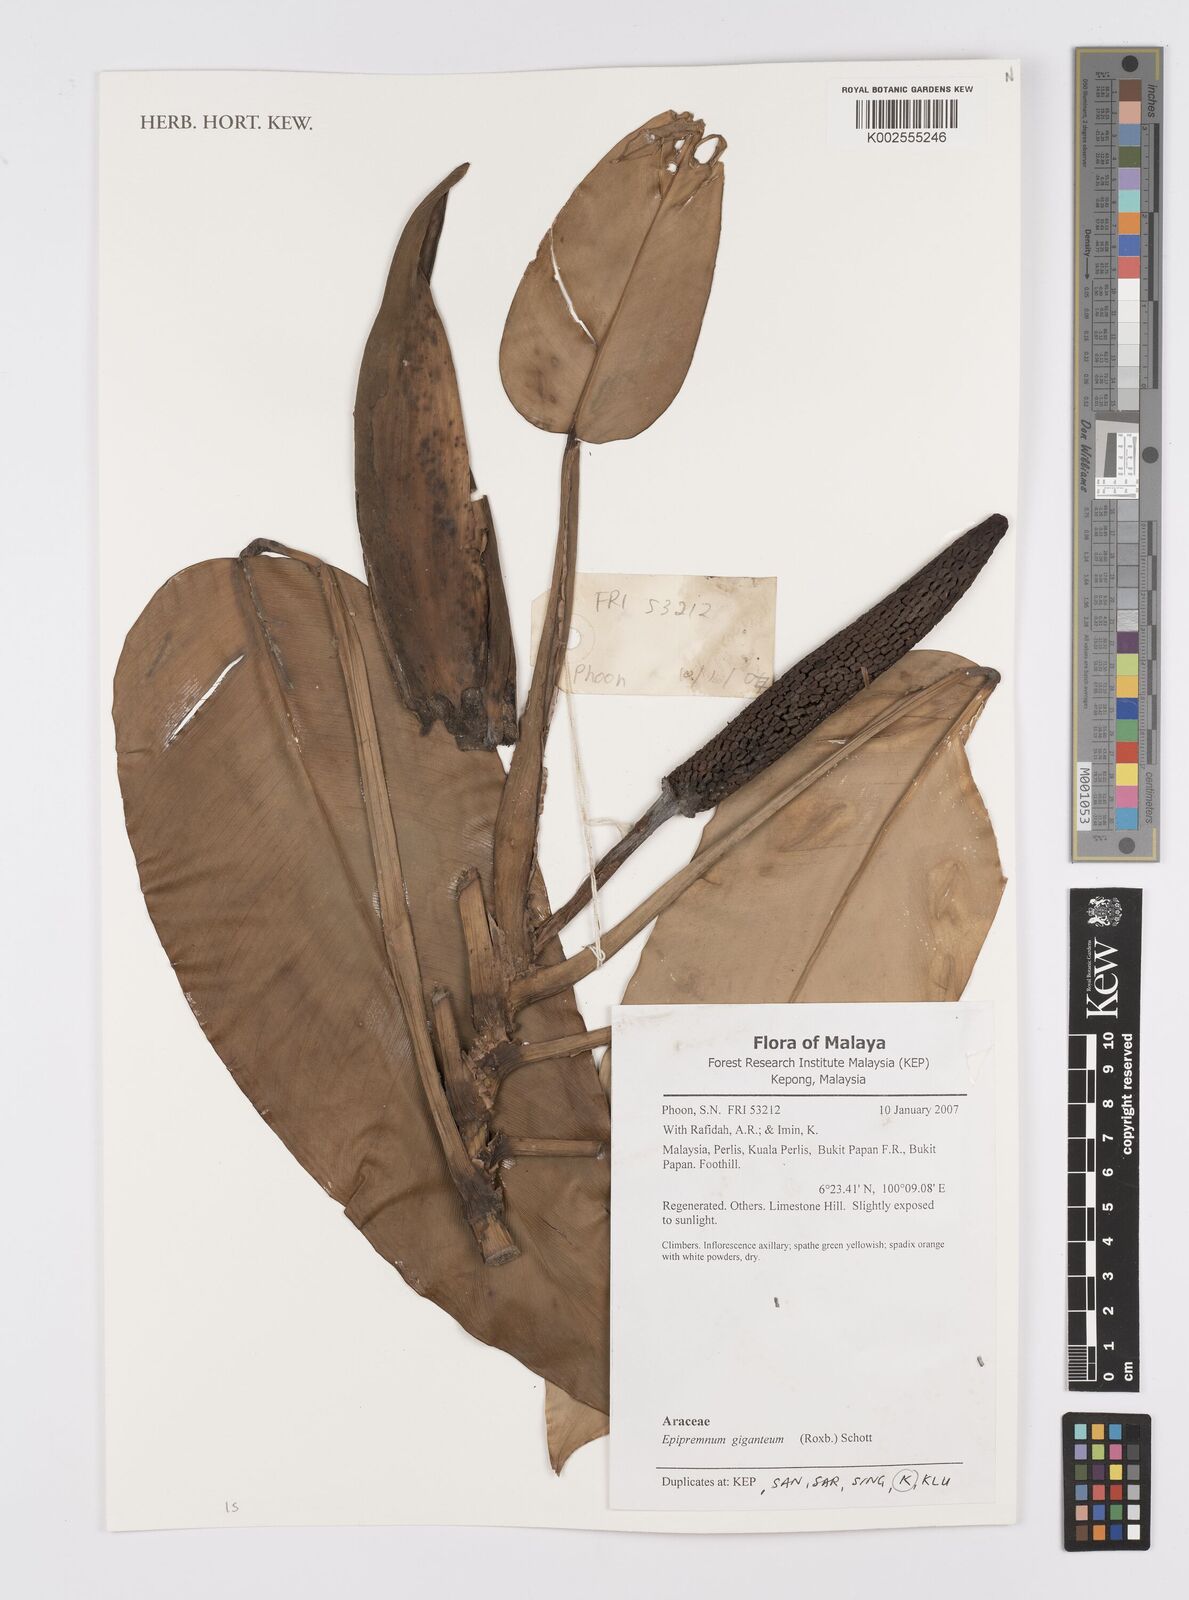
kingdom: Plantae
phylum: Tracheophyta
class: Liliopsida
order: Alismatales
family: Araceae
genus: Epipremnum
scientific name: Epipremnum giganteum
